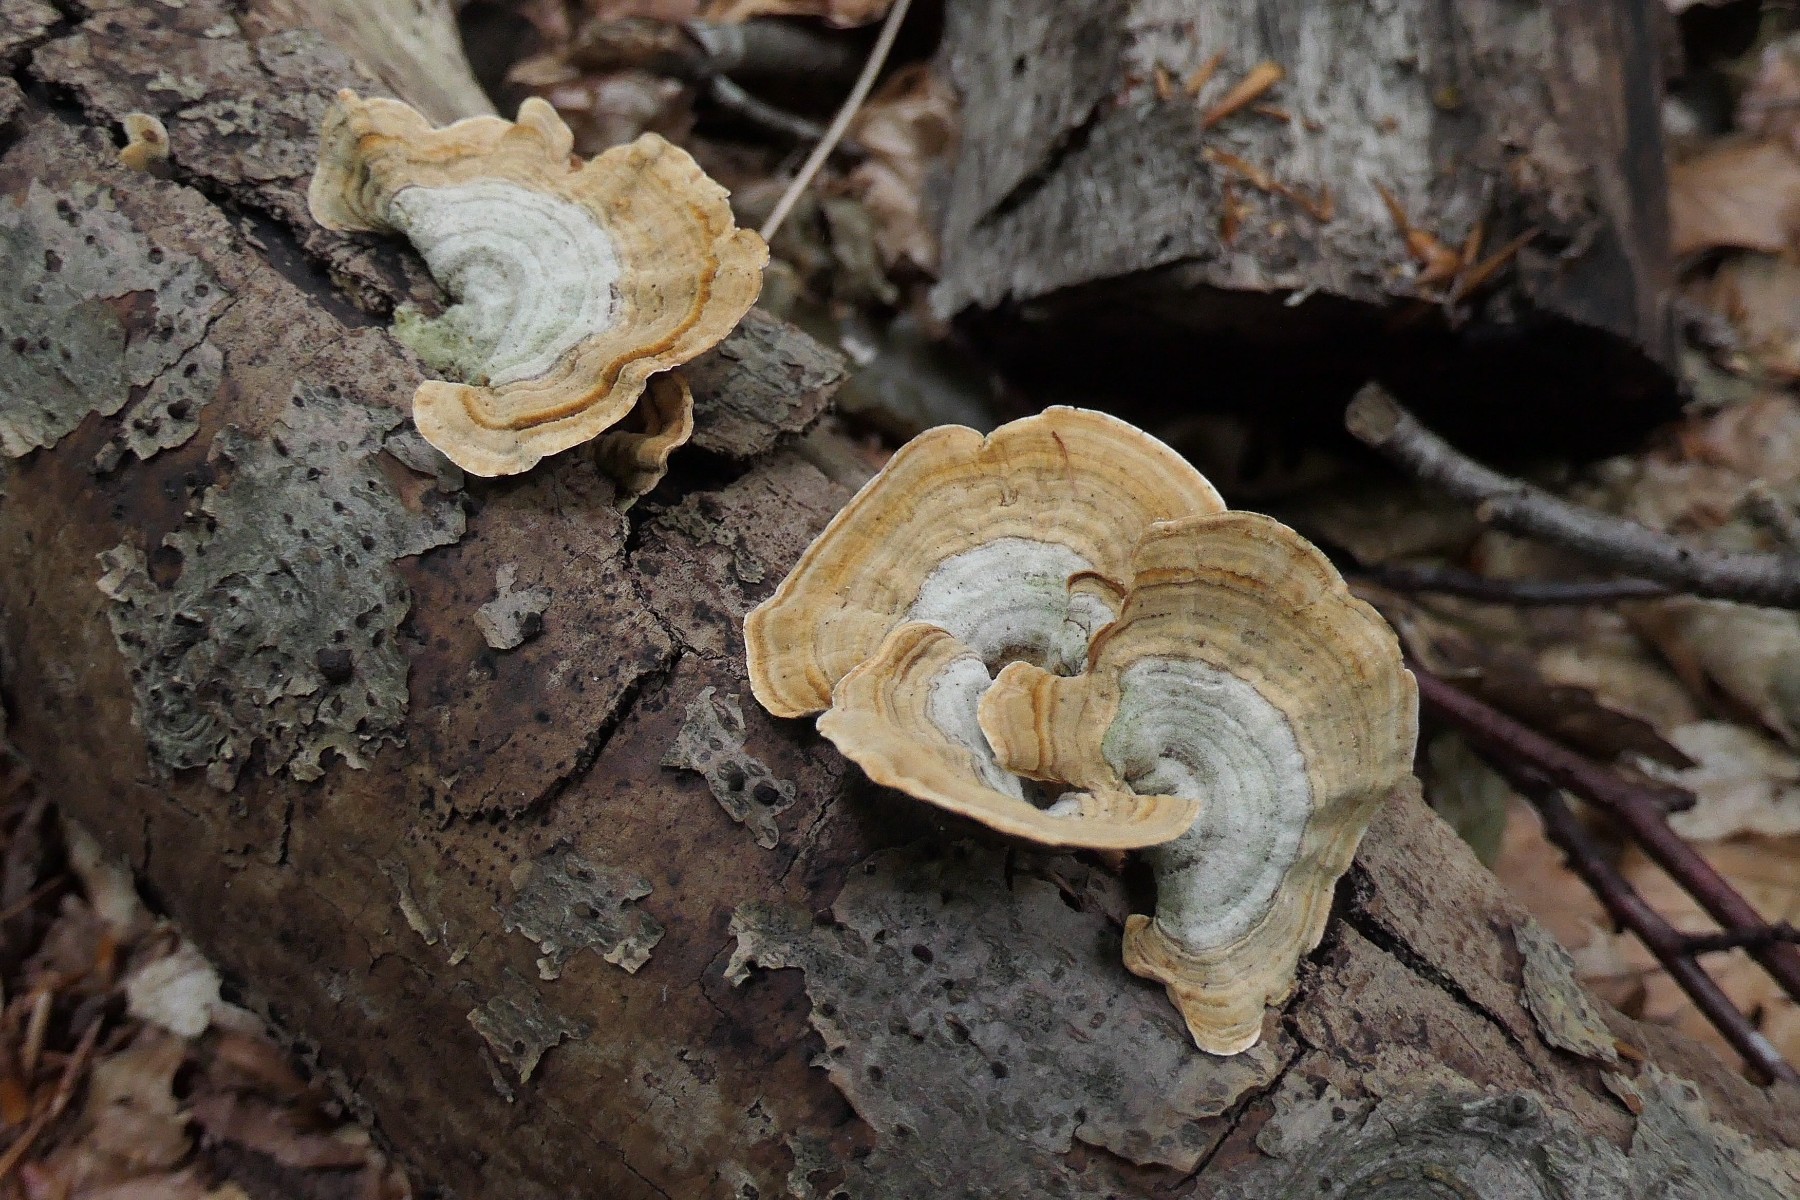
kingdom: Fungi
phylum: Basidiomycota
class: Agaricomycetes
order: Russulales
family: Stereaceae
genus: Stereum
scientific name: Stereum subtomentosum
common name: smuk lædersvamp
